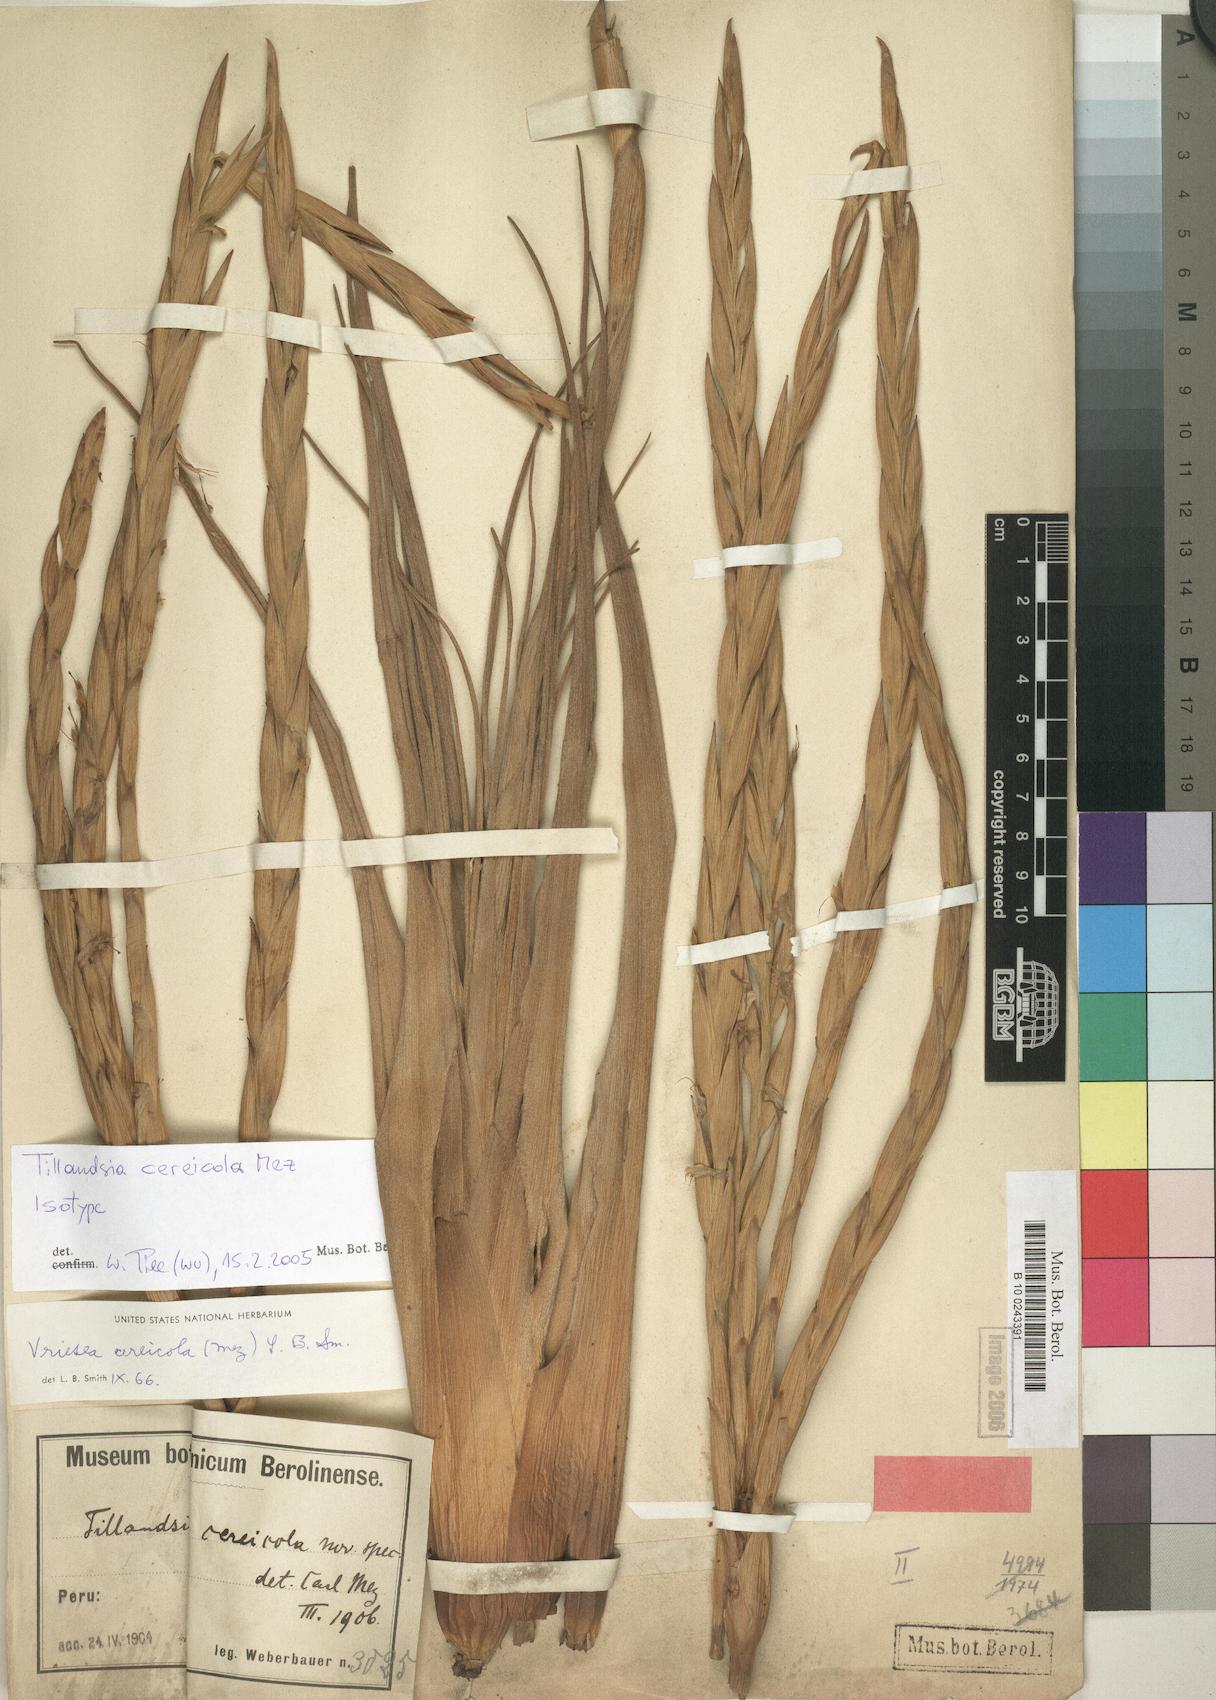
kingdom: Plantae
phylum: Tracheophyta
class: Liliopsida
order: Poales
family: Bromeliaceae
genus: Vriesea
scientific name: Vriesea cereicola
